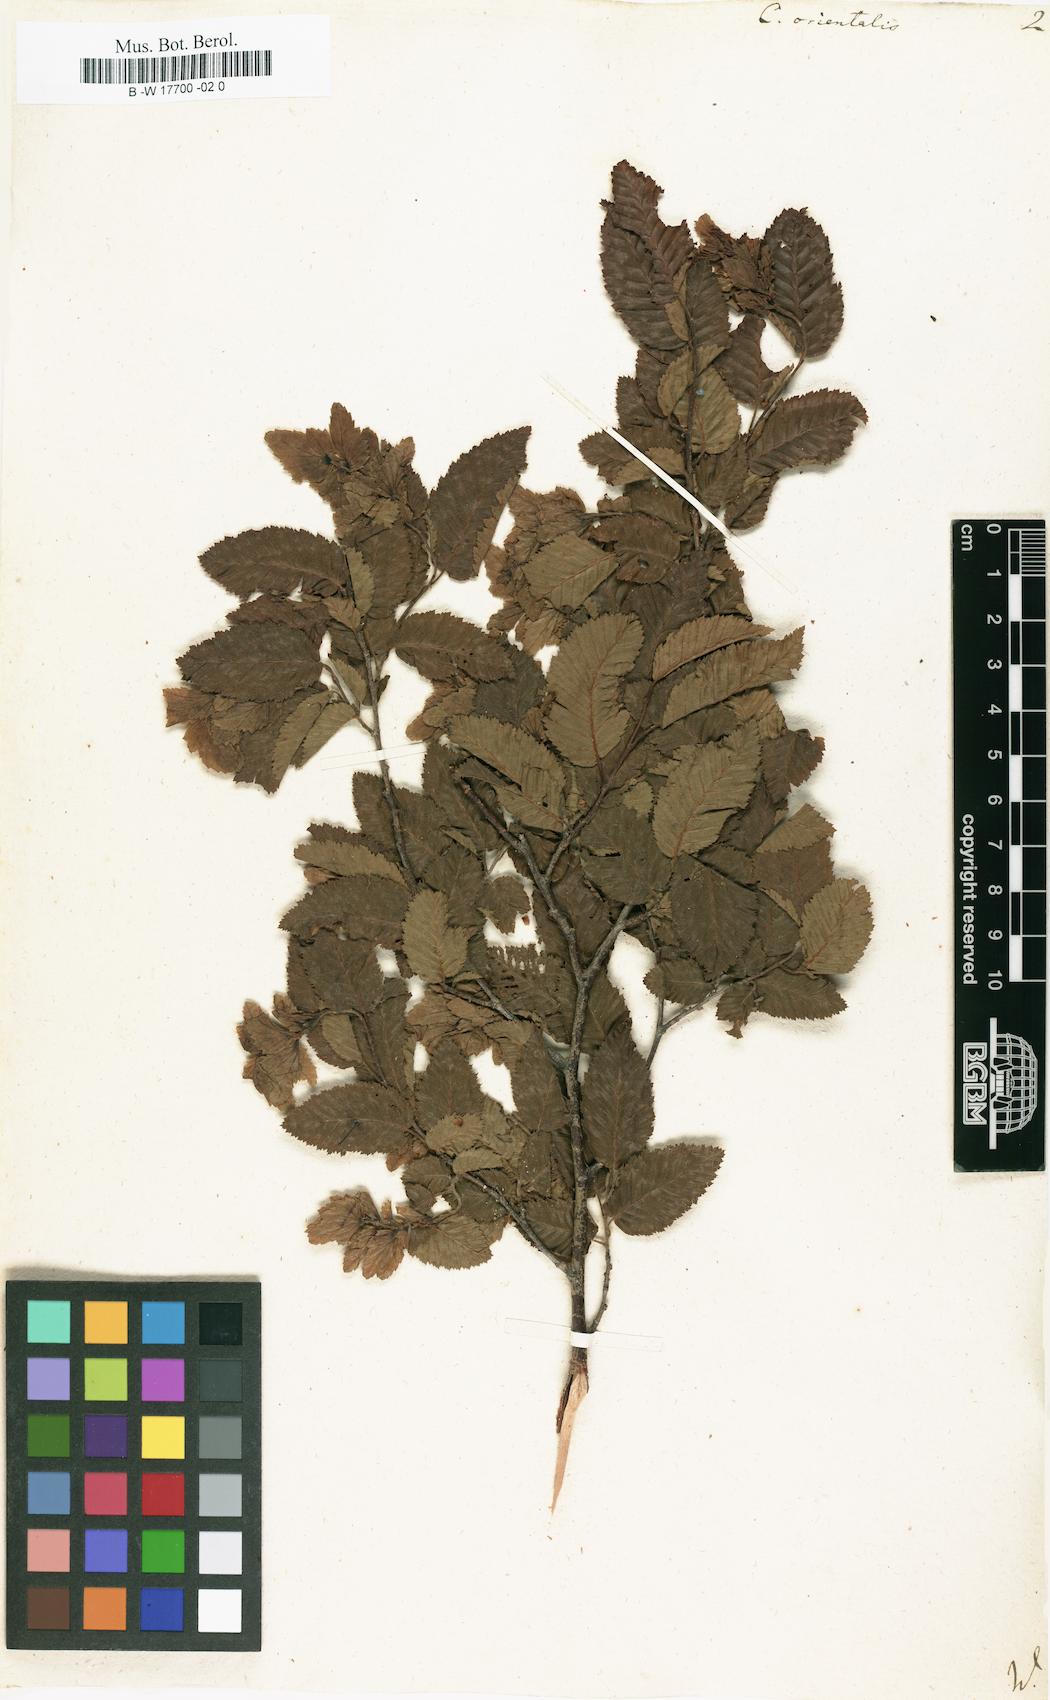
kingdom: Plantae
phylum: Tracheophyta
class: Magnoliopsida
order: Fagales
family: Betulaceae
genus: Carpinus
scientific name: Carpinus orientalis
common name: Eastern hornbeam
